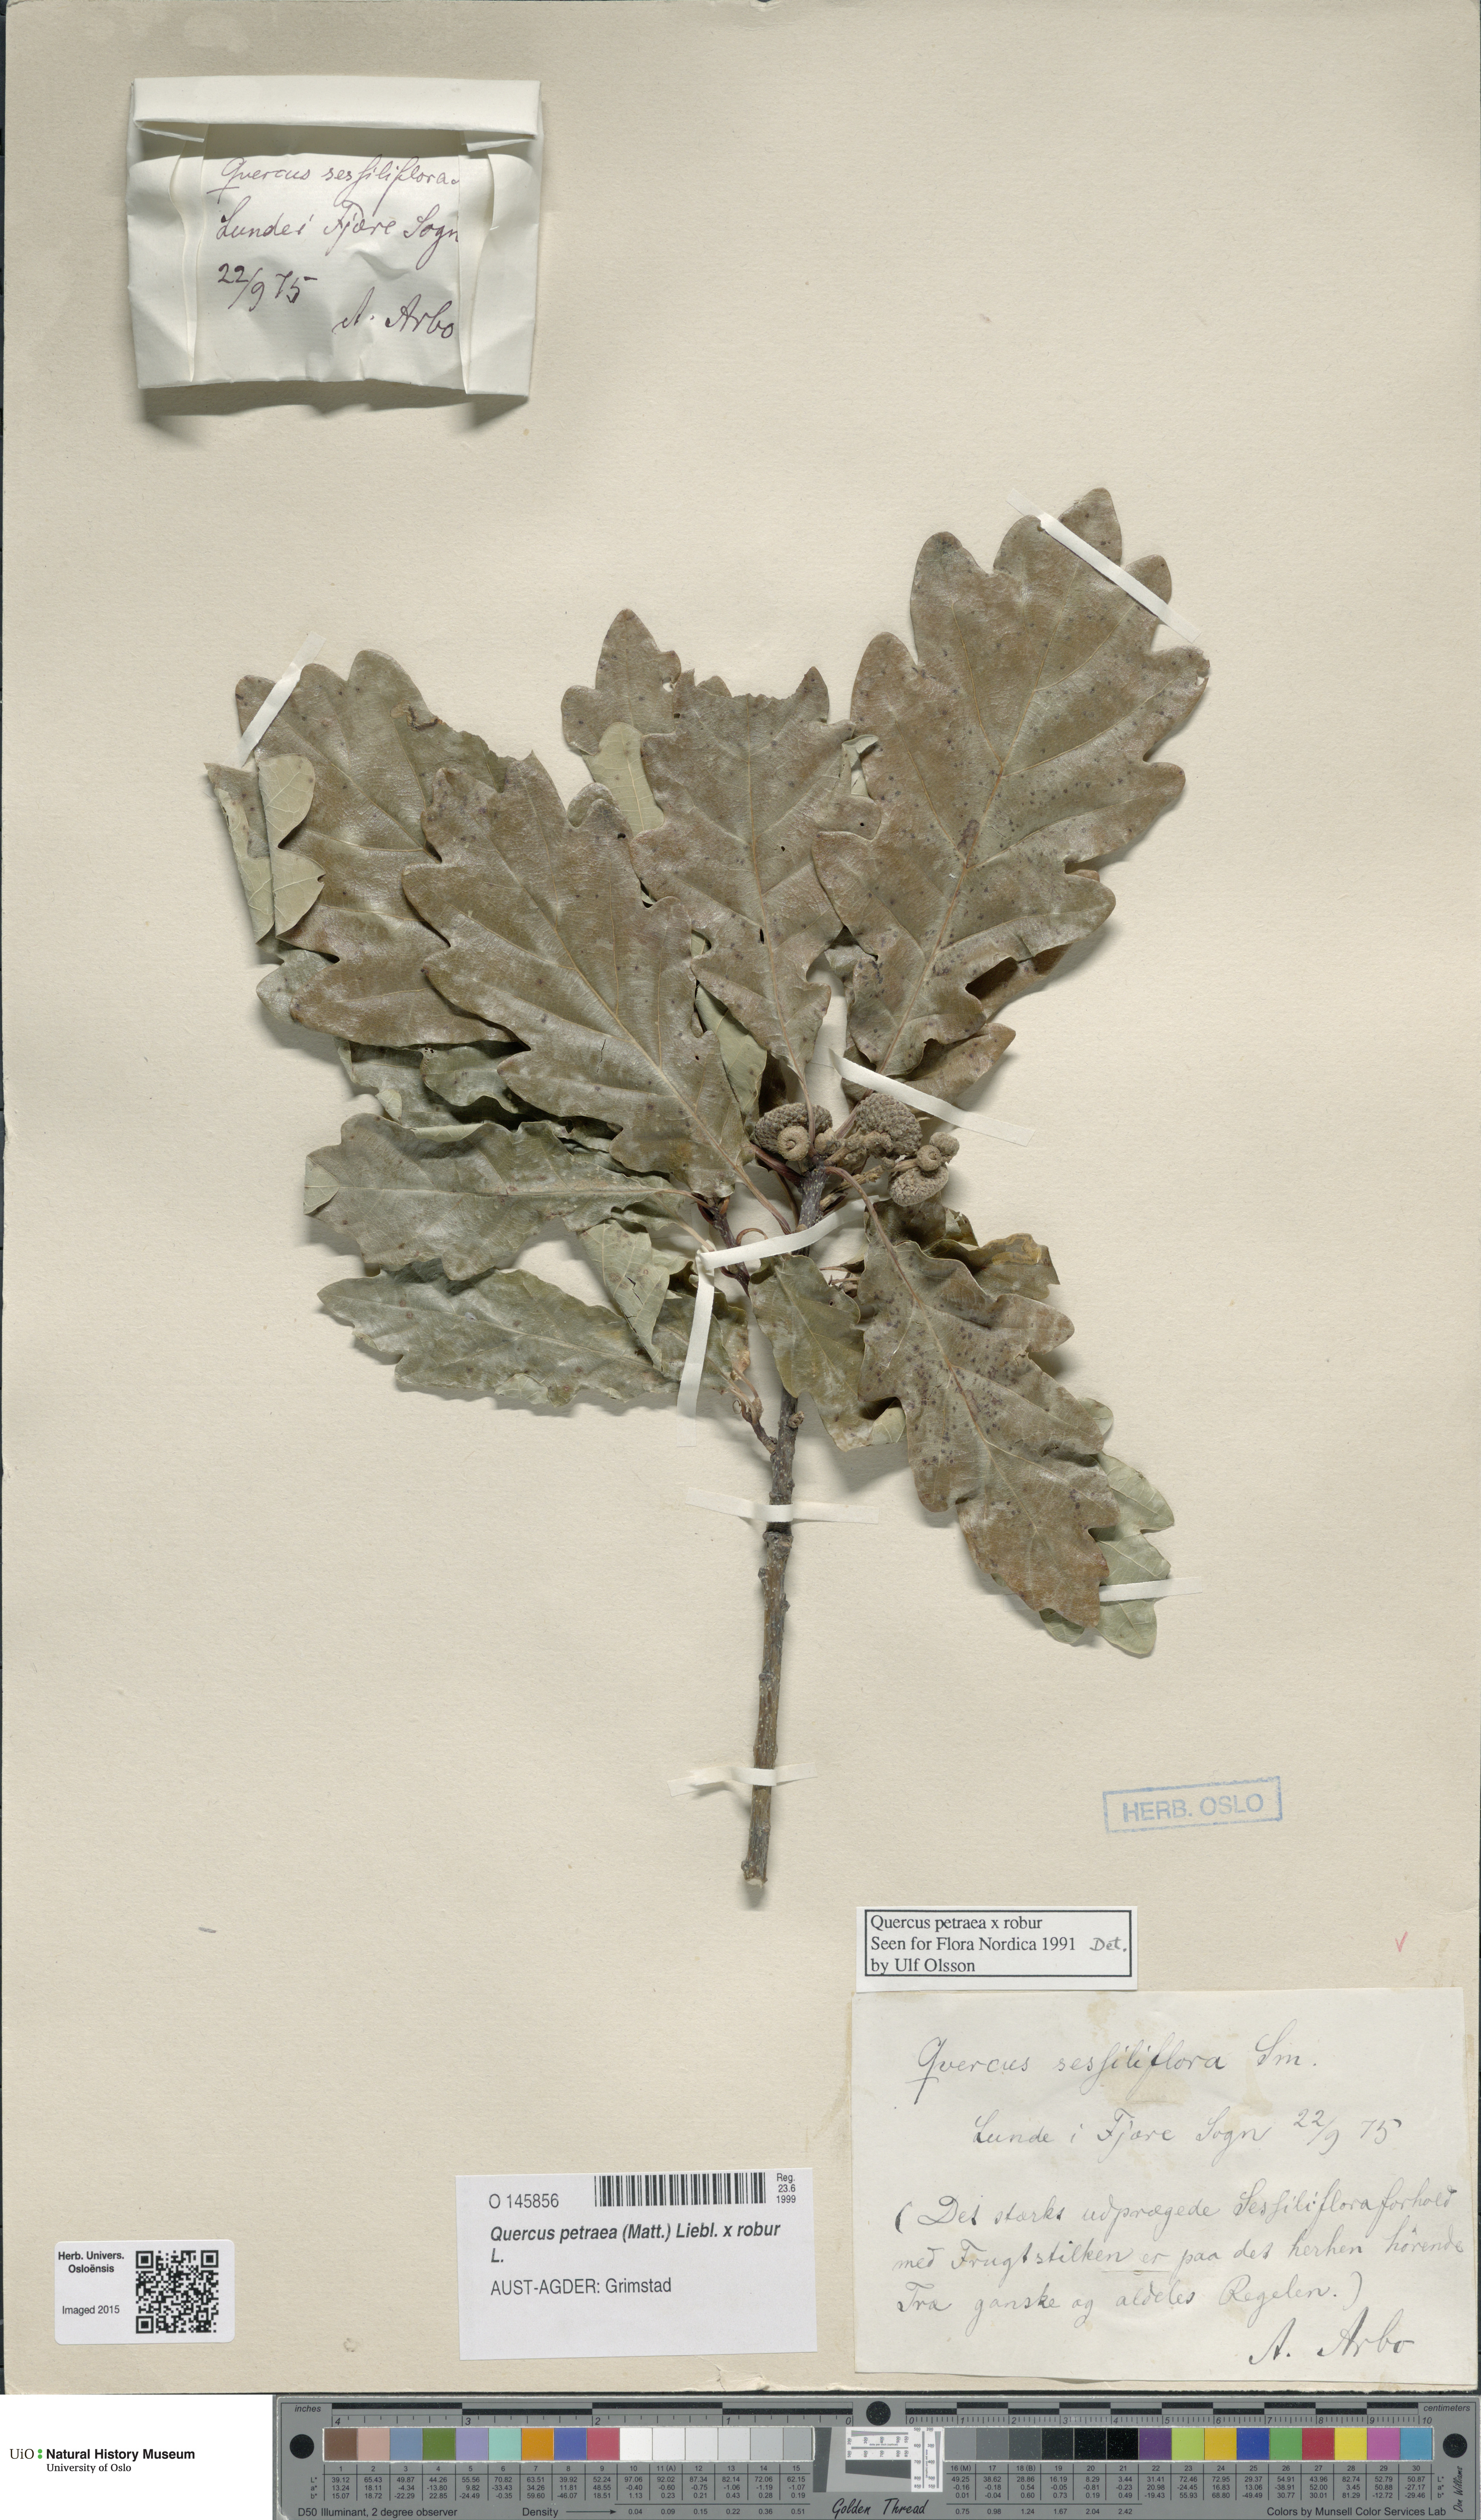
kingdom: Plantae
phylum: Tracheophyta
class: Magnoliopsida
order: Fagales
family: Fagaceae
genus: Quercus
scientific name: Quercus
